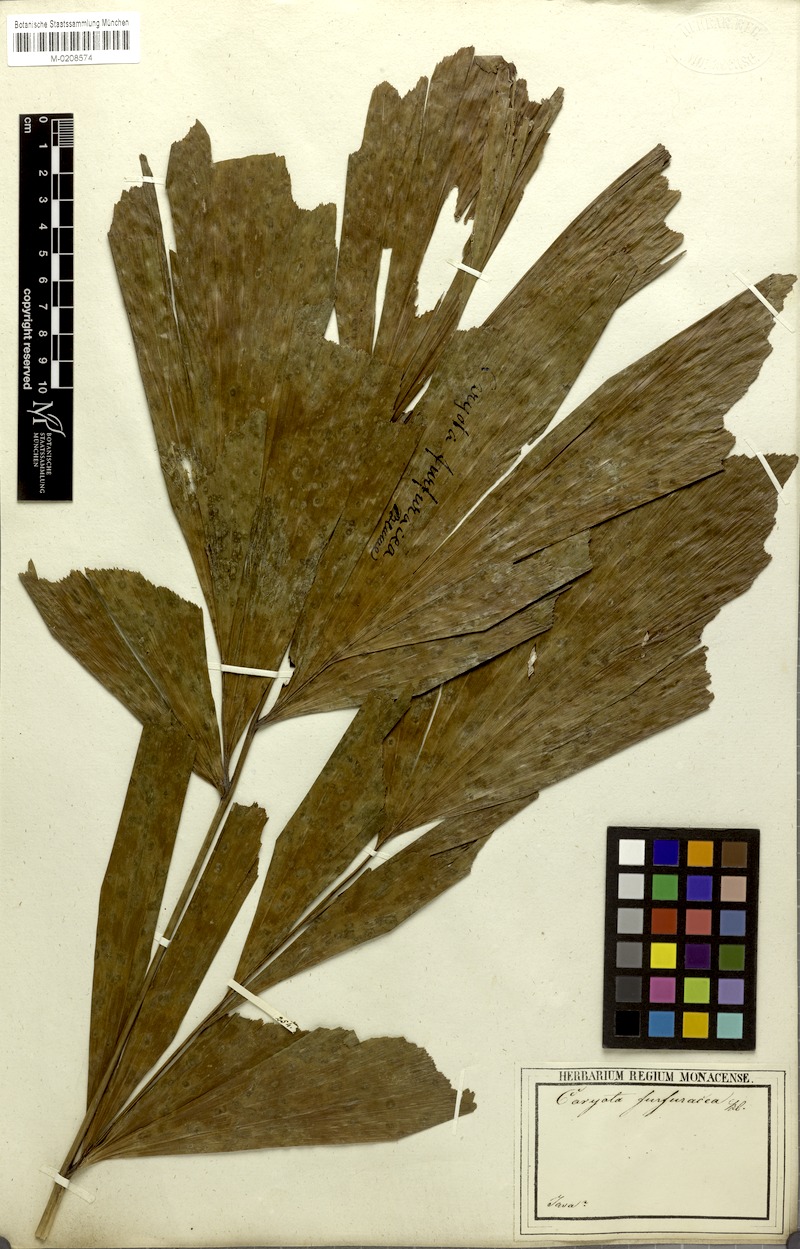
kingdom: Plantae
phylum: Tracheophyta
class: Liliopsida
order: Arecales
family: Arecaceae
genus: Caryota
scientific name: Caryota mitis
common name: Burmese fishtail palm
